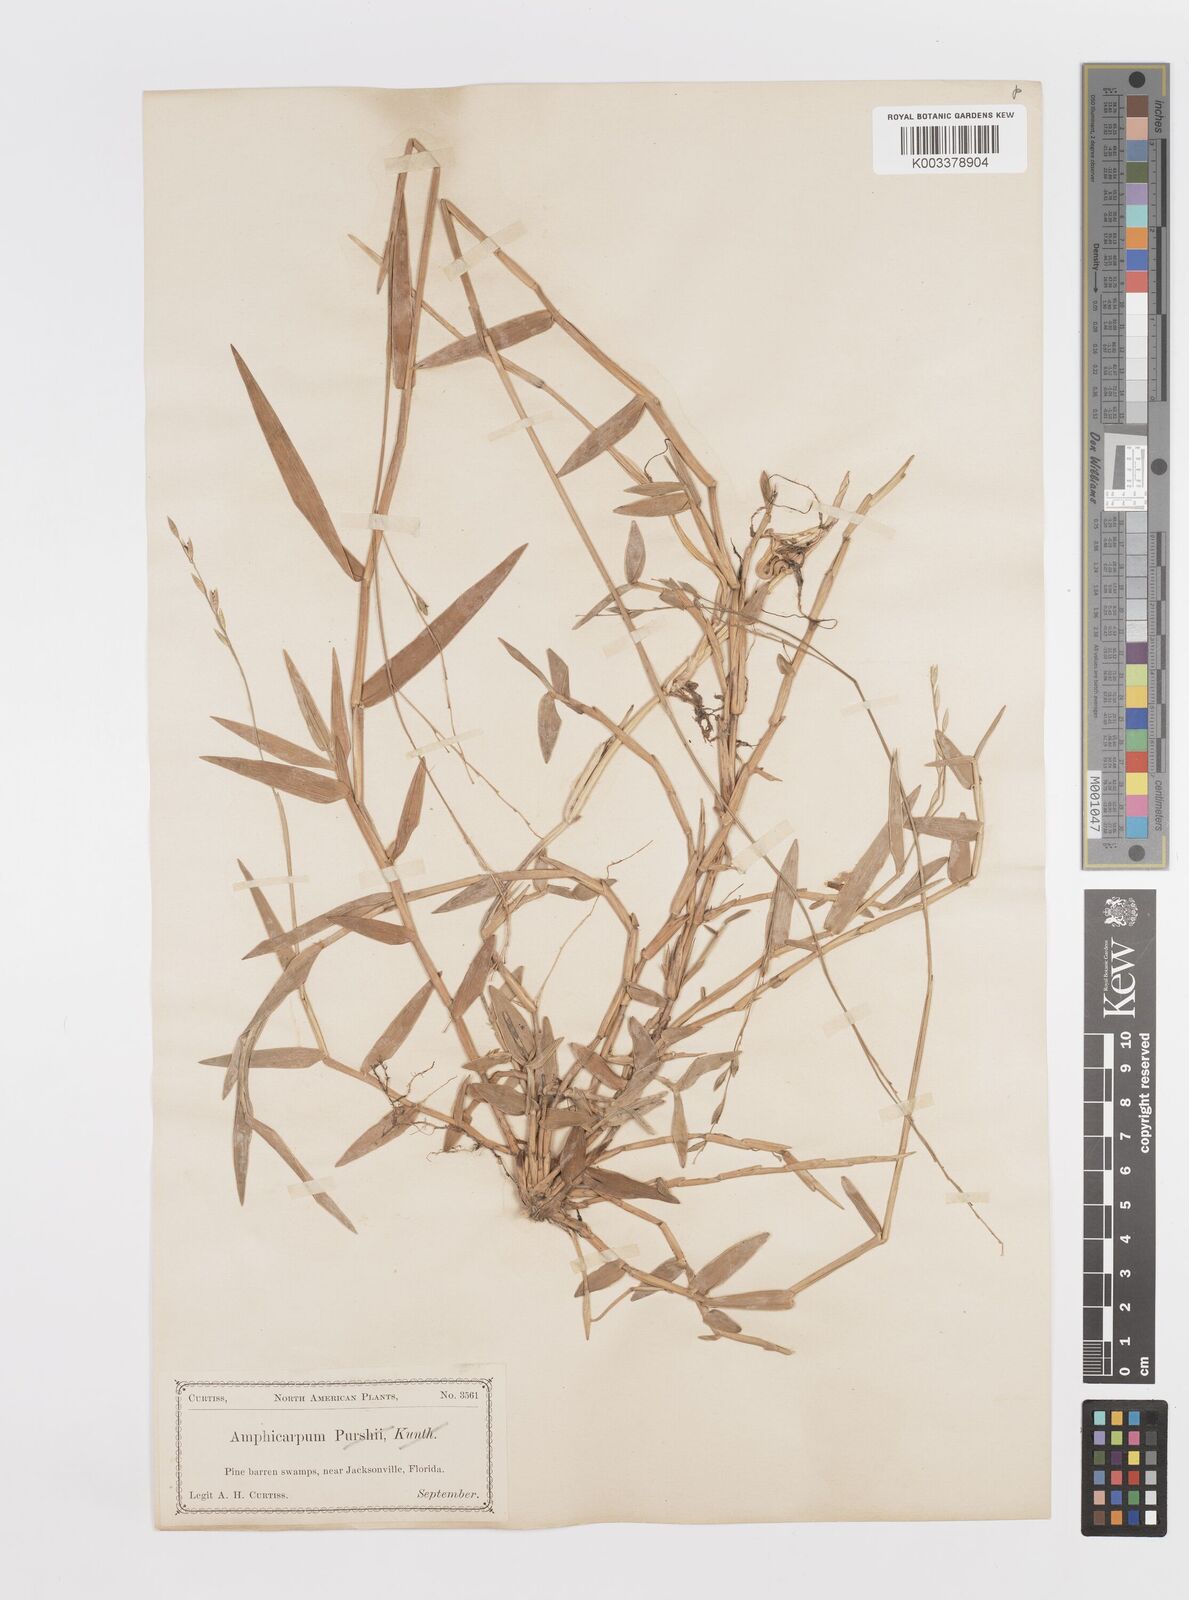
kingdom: Plantae
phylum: Tracheophyta
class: Liliopsida
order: Poales
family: Poaceae
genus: Amphicarpum
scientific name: Amphicarpum muehlenbergianum
